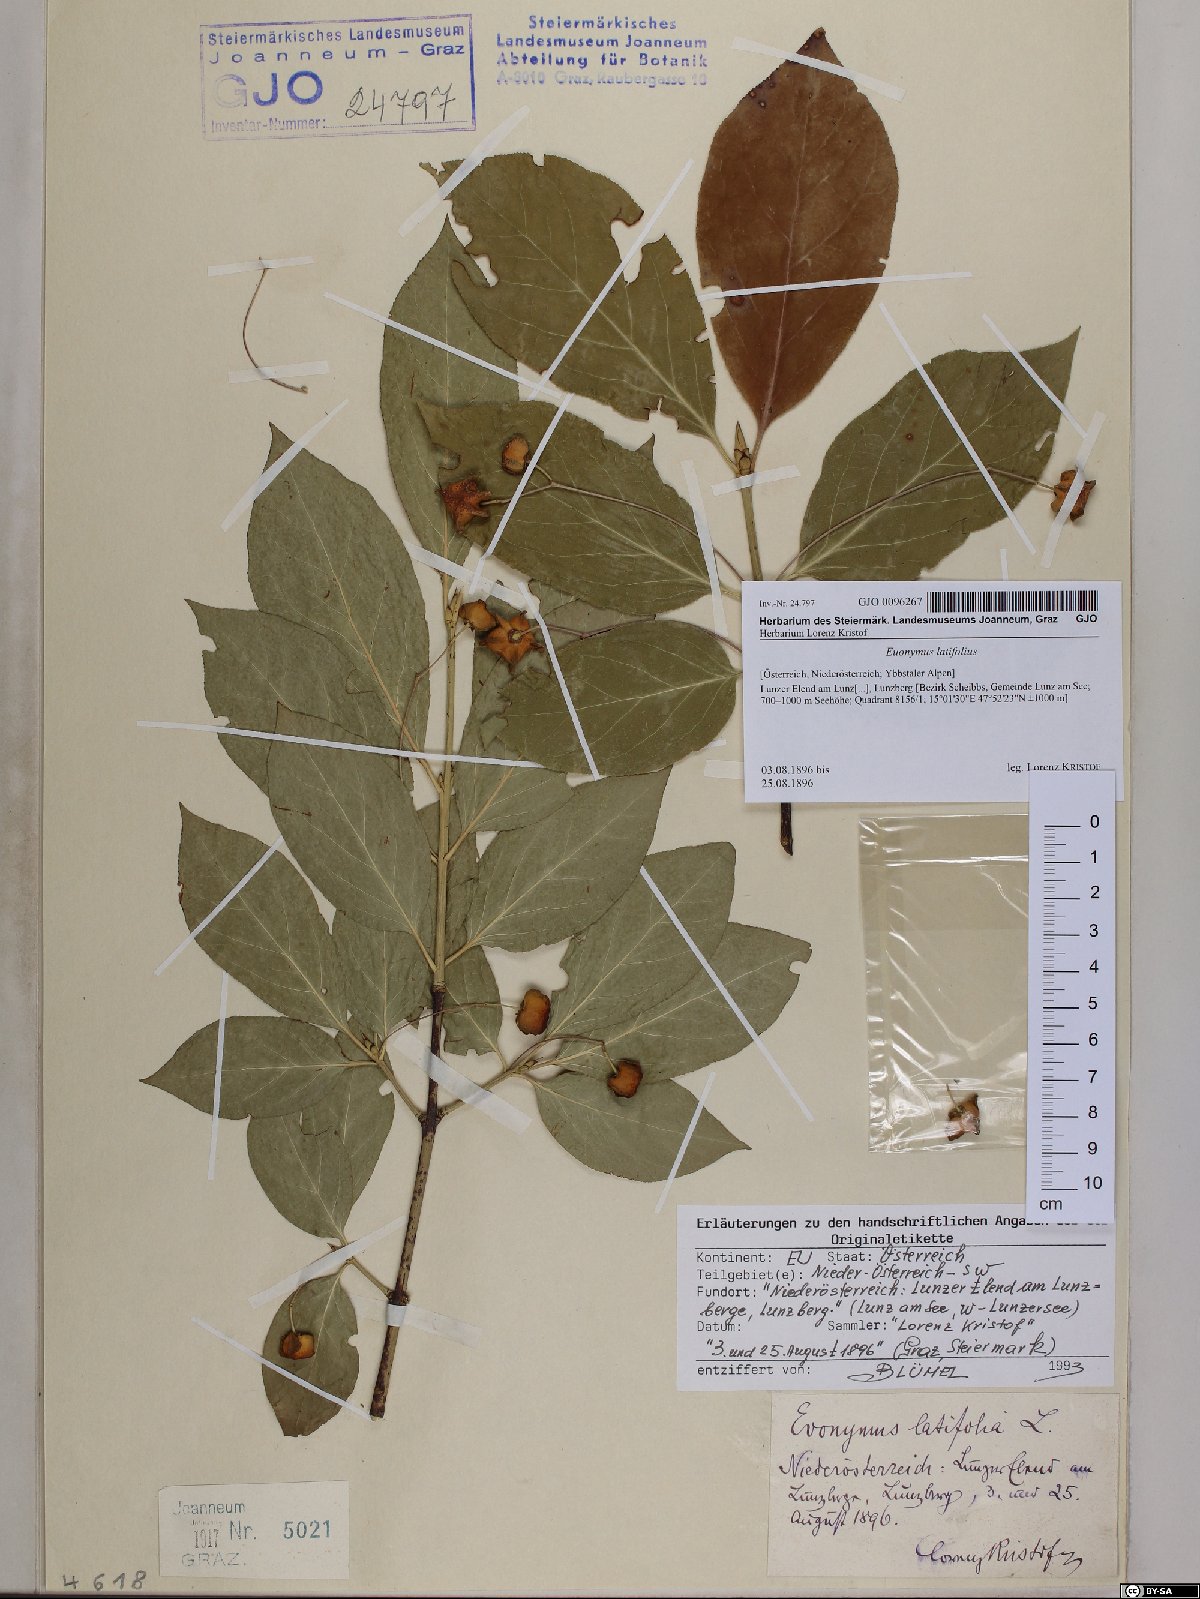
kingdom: Plantae
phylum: Tracheophyta
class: Magnoliopsida
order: Celastrales
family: Celastraceae
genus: Euonymus
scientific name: Euonymus latifolius
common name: Large-leaved spindle
